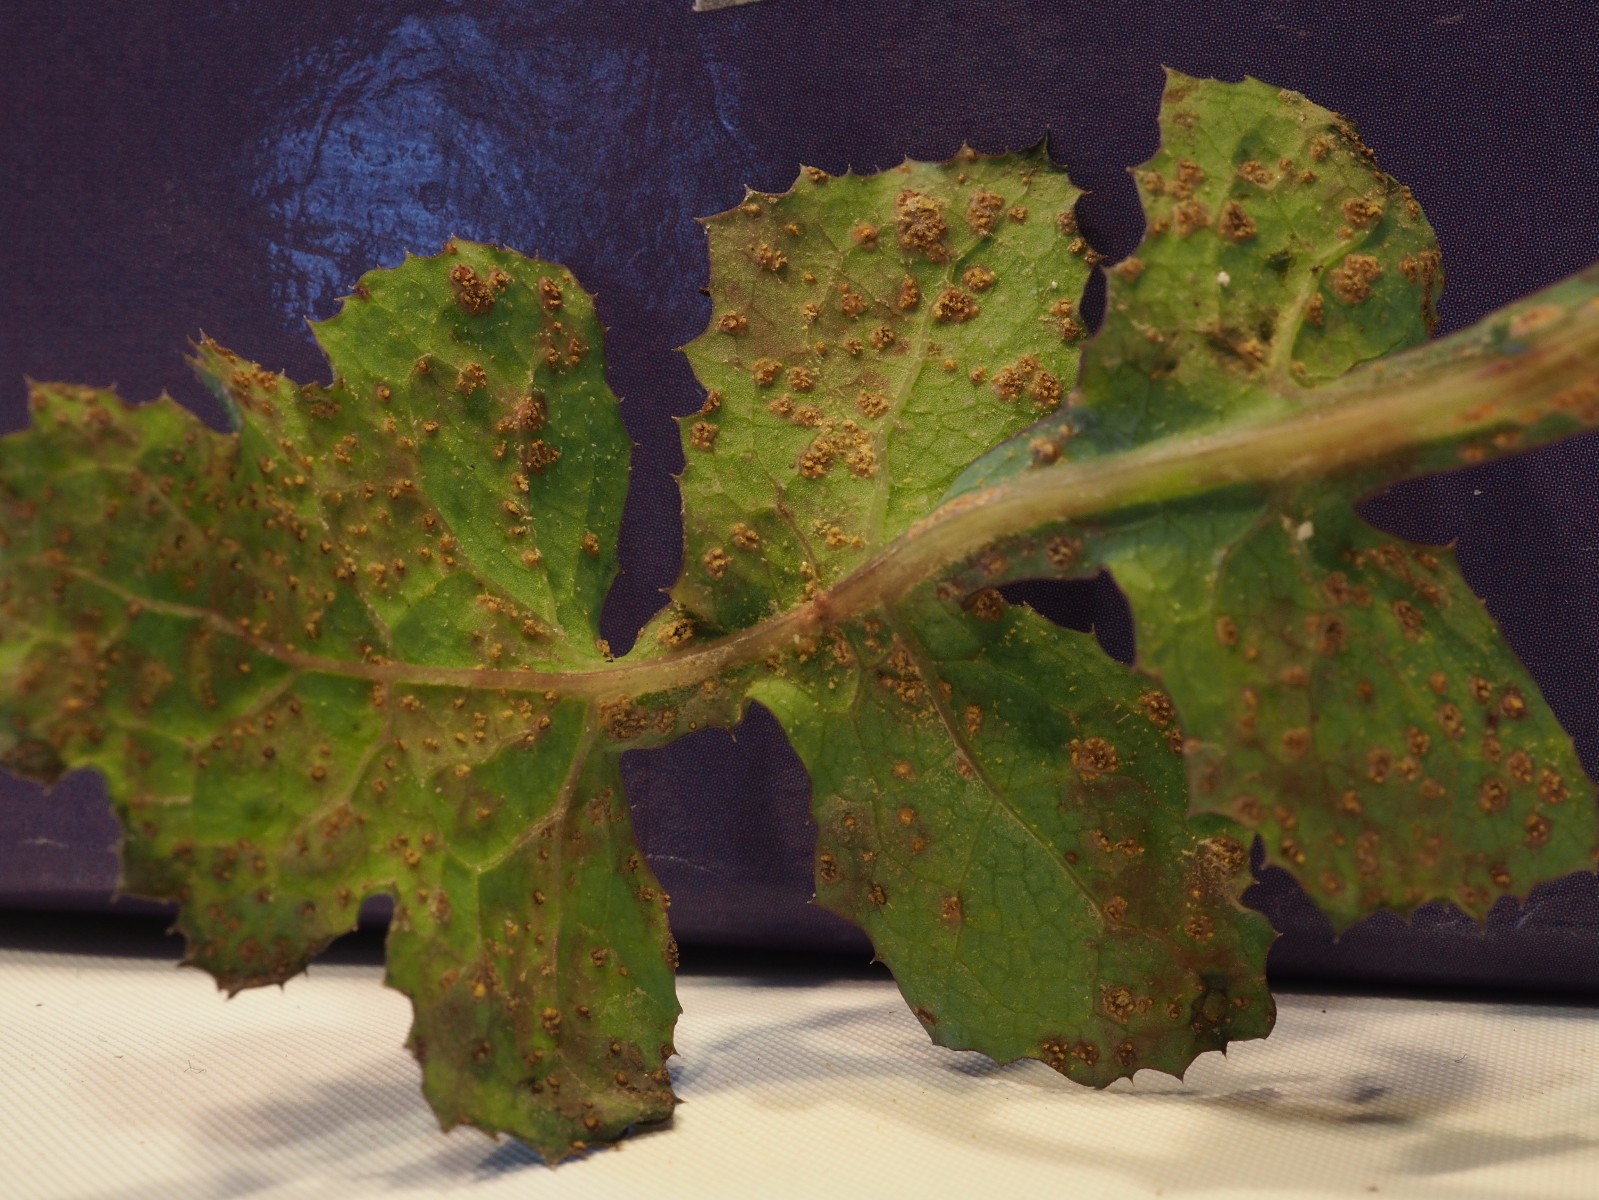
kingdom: Fungi
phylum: Basidiomycota
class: Pucciniomycetes
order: Pucciniales
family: Pucciniaceae
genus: Peristemma
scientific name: Peristemma pseudosphaeria
